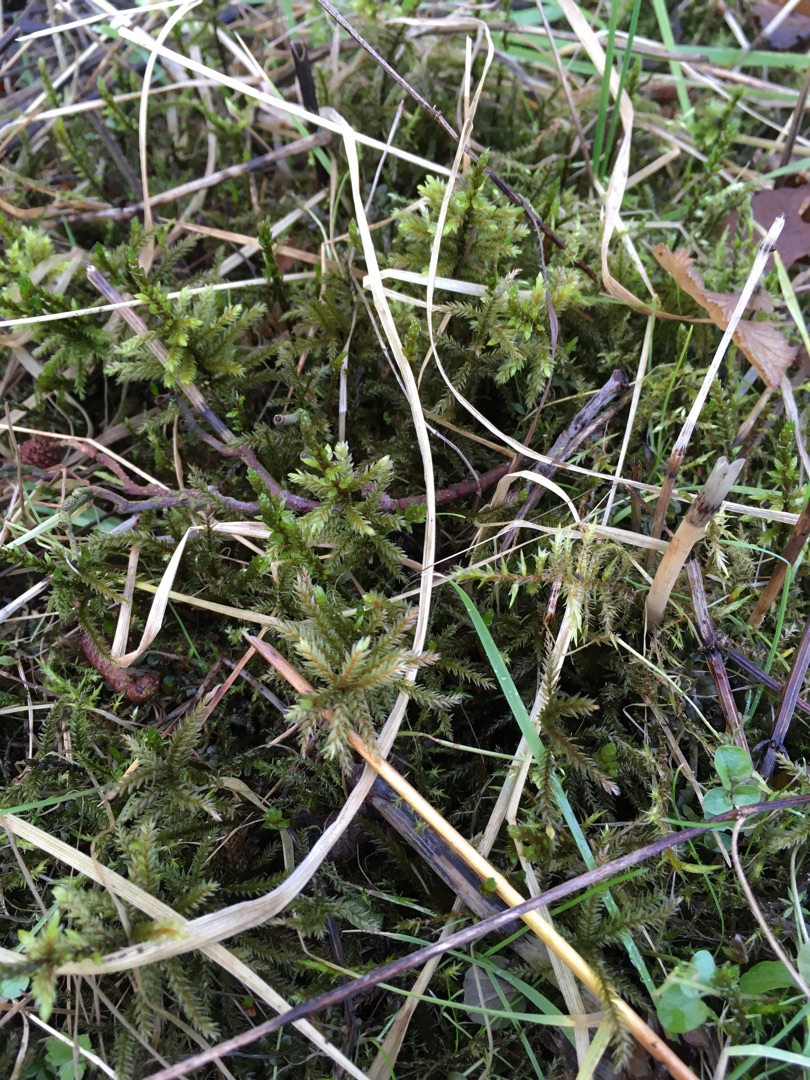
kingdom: Plantae
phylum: Bryophyta
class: Bryopsida
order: Hypnales
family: Climaciaceae
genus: Climacium
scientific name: Climacium dendroides
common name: Stor engkost
